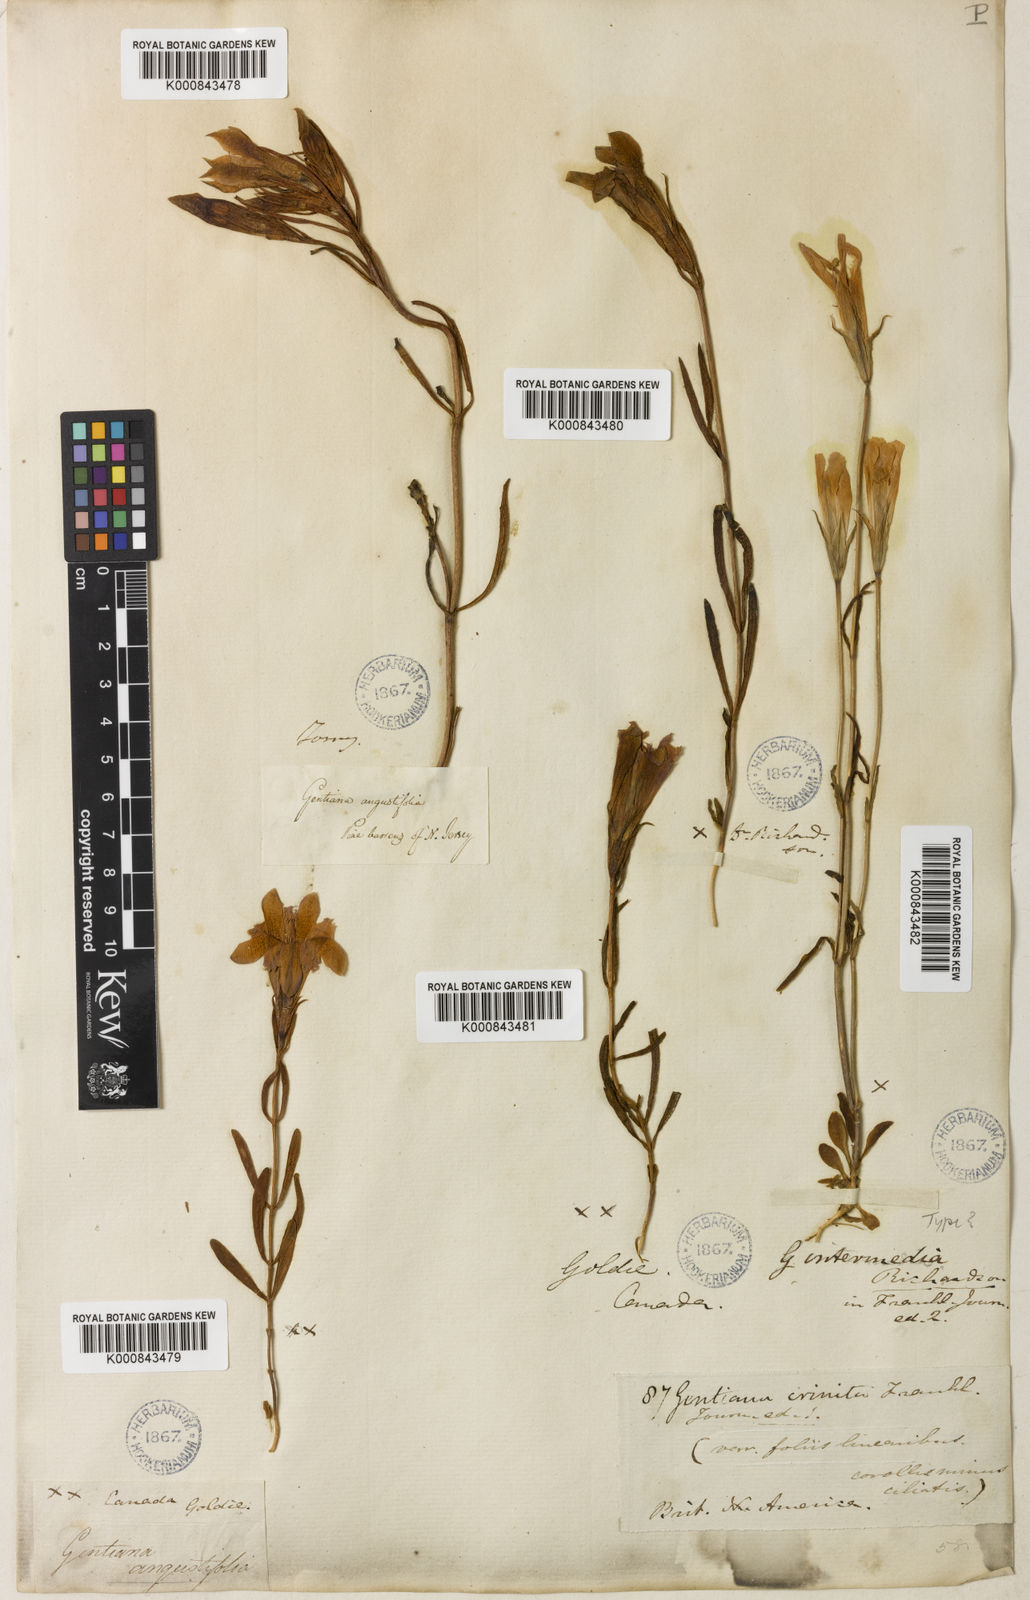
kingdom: Plantae
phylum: Tracheophyta
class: Magnoliopsida
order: Gentianales
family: Gentianaceae
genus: Gentianopsis
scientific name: Gentianopsis crinita
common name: Fringed-gentian
